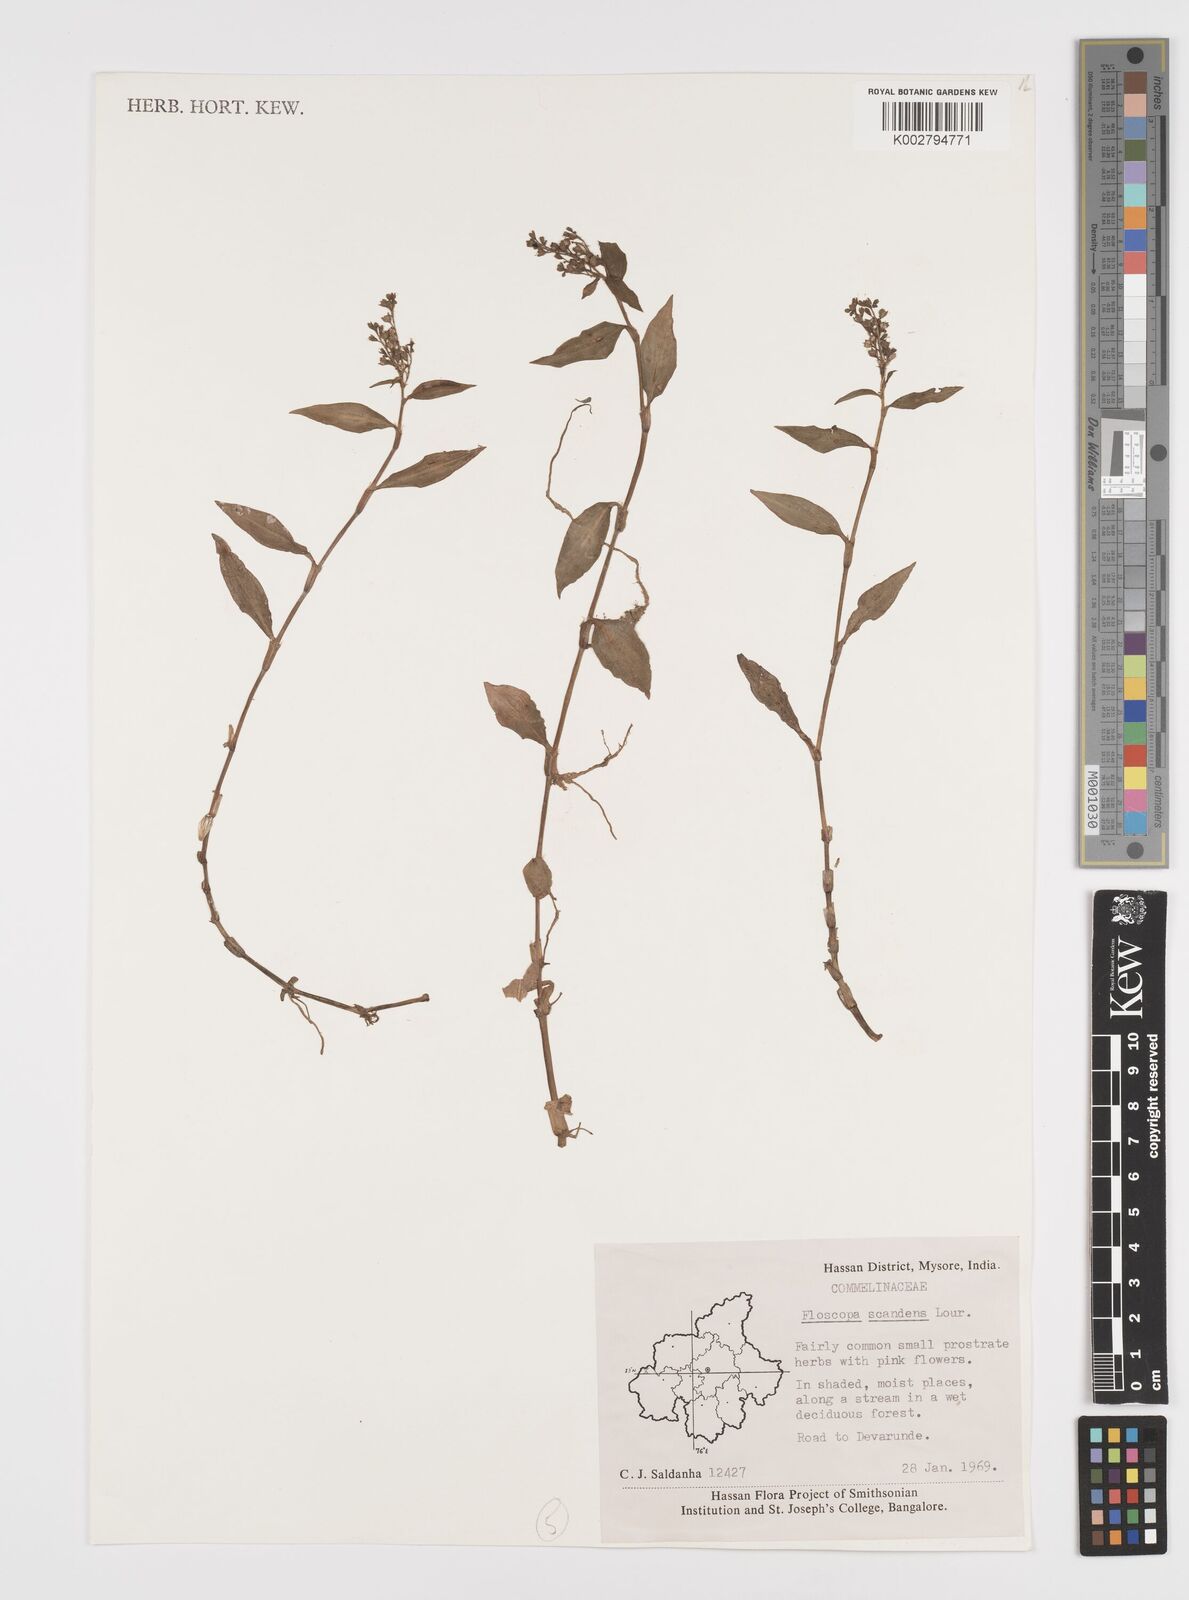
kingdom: Plantae
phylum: Tracheophyta
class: Liliopsida
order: Commelinales
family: Commelinaceae
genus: Floscopa
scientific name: Floscopa scandens
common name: Climbing flower cup
